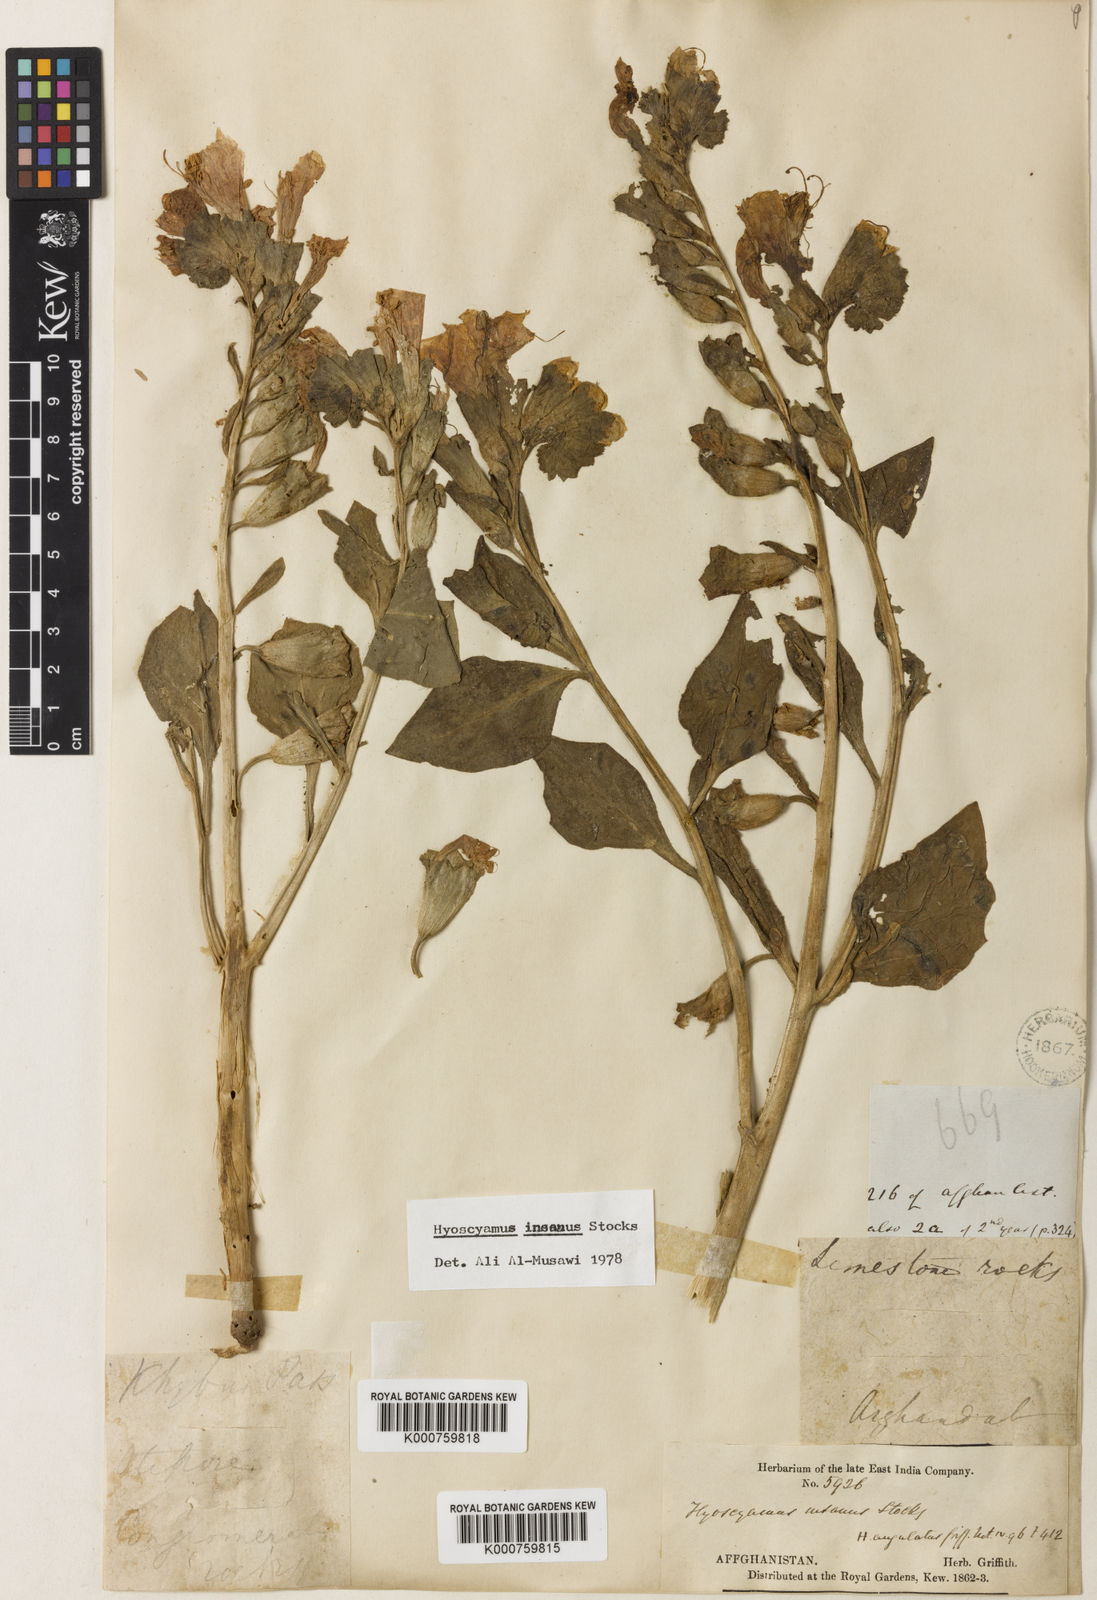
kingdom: Plantae
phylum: Tracheophyta
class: Magnoliopsida
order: Solanales
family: Solanaceae
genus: Hyoscyamus
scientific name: Hyoscyamus insanus
